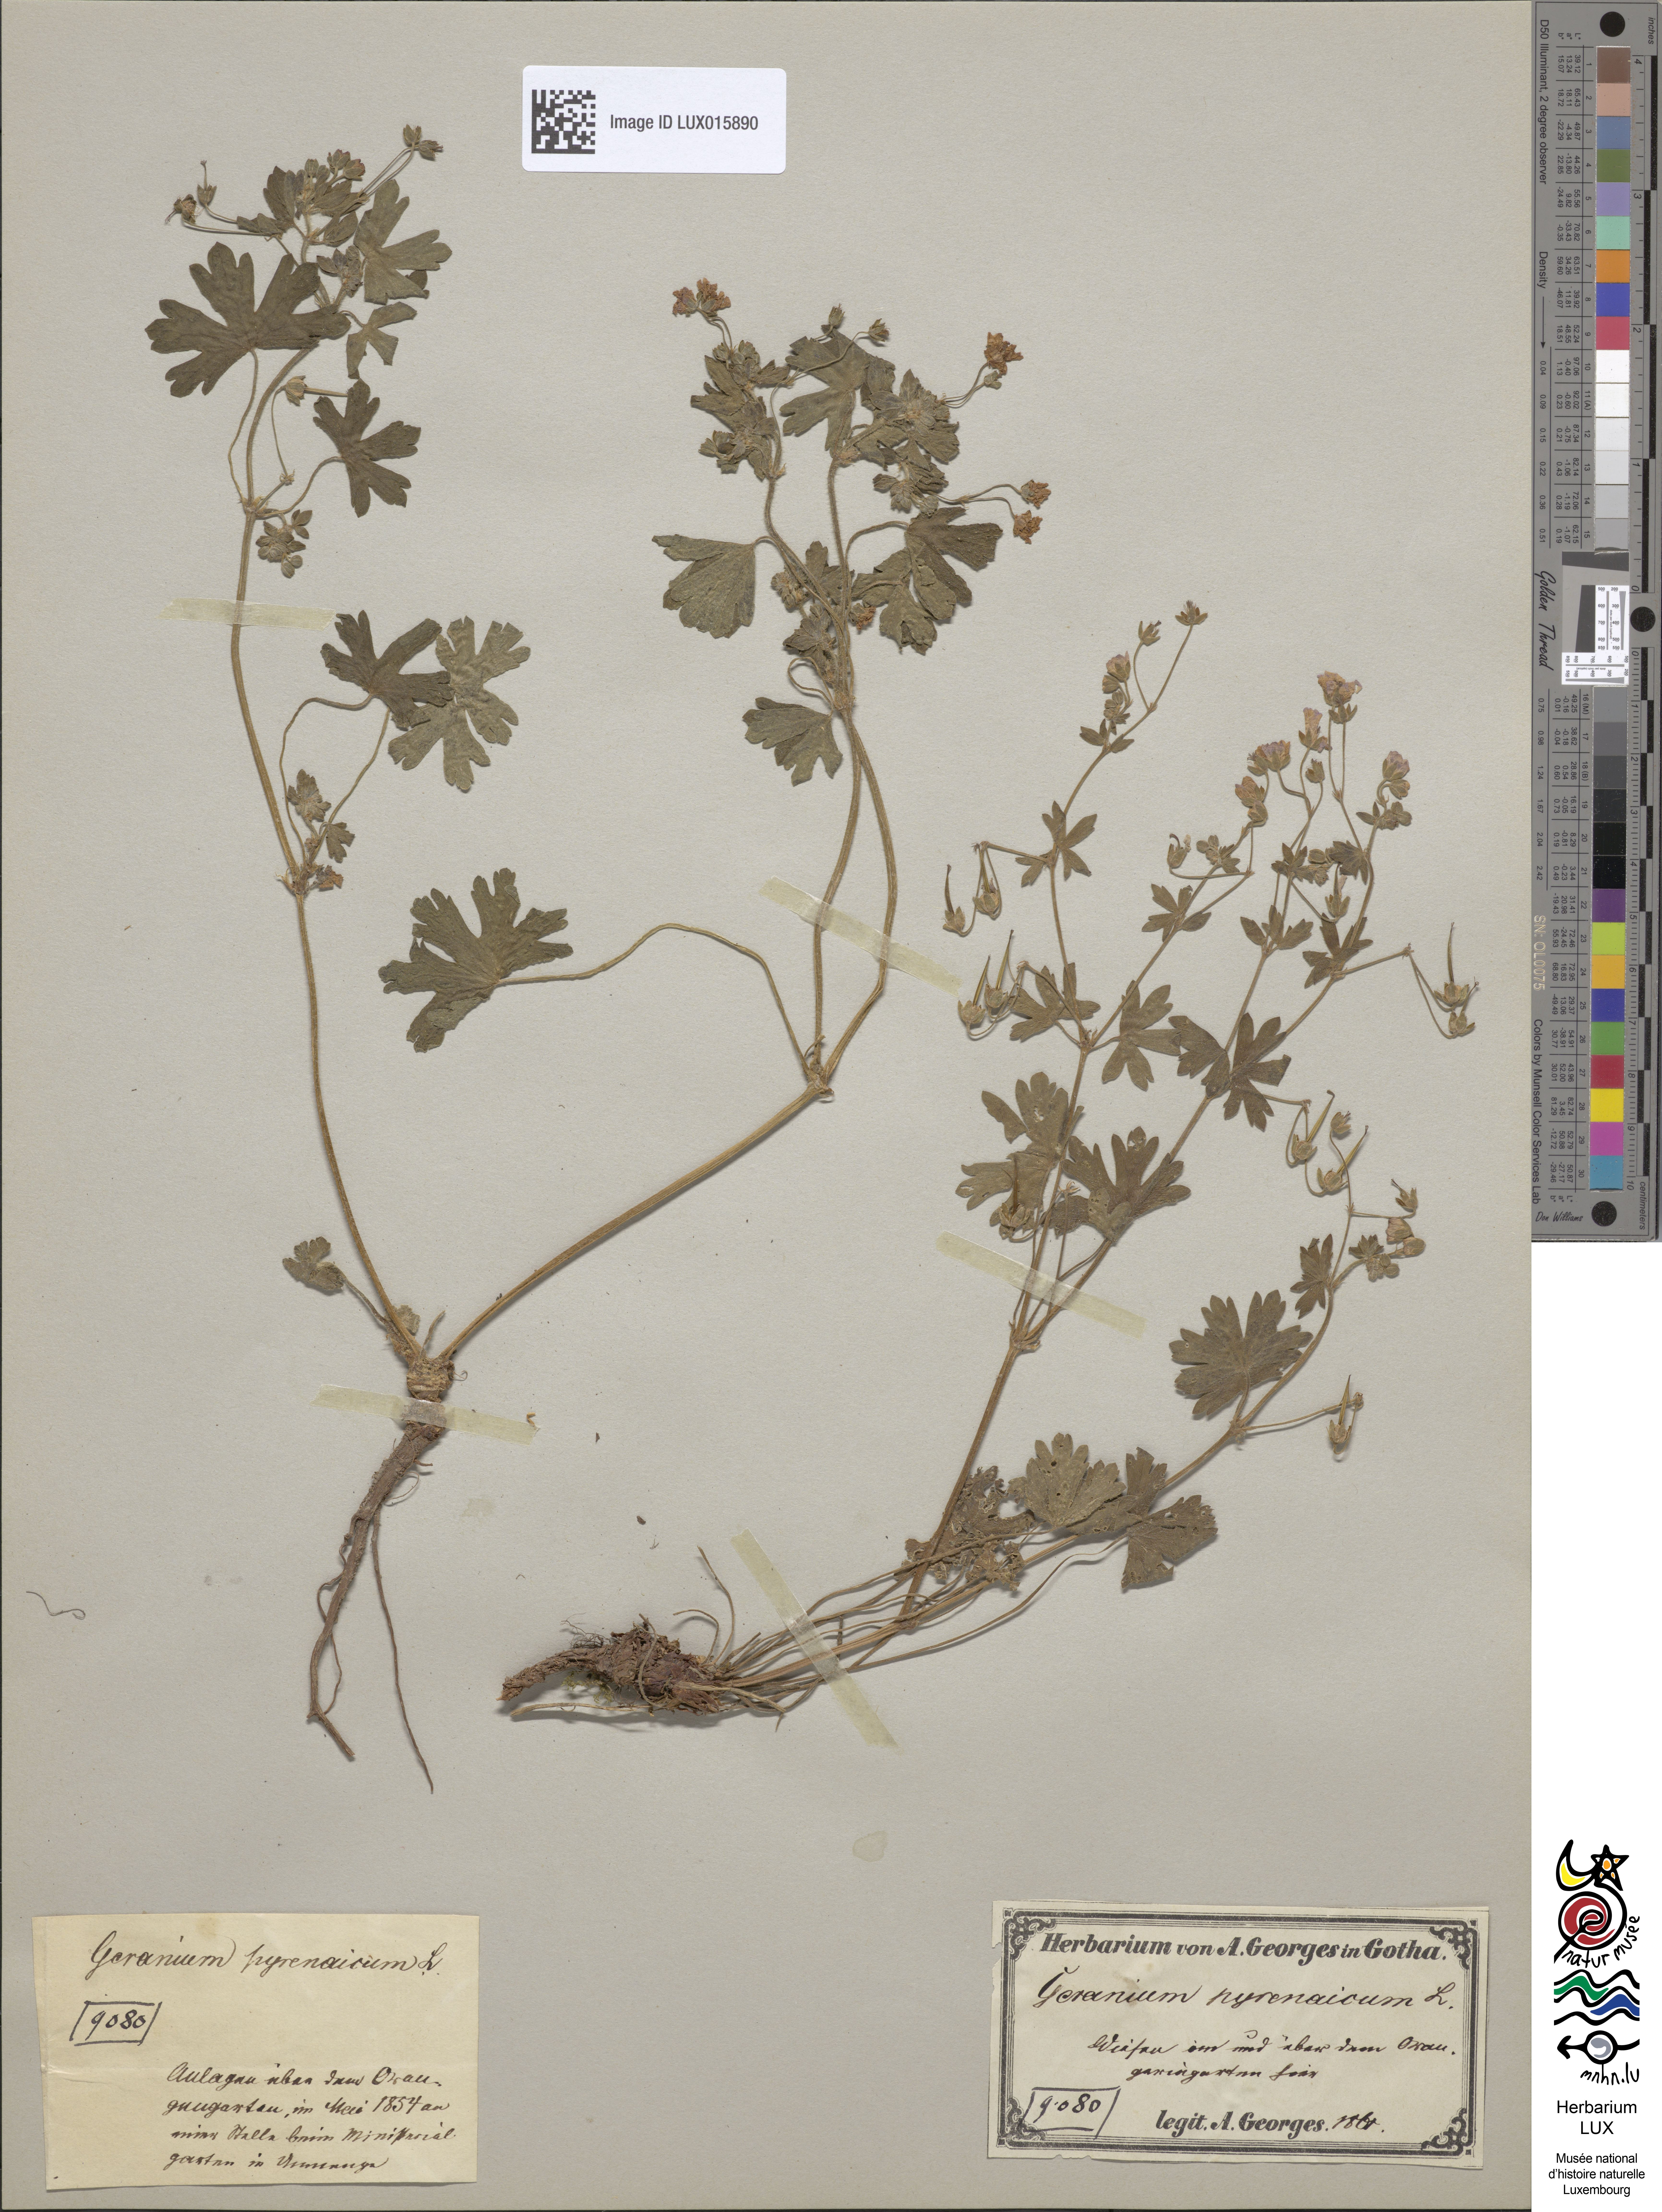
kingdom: Plantae
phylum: Tracheophyta
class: Magnoliopsida
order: Geraniales
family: Geraniaceae
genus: Geranium
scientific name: Geranium pyrenaicum
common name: Hedgerow crane's-bill
